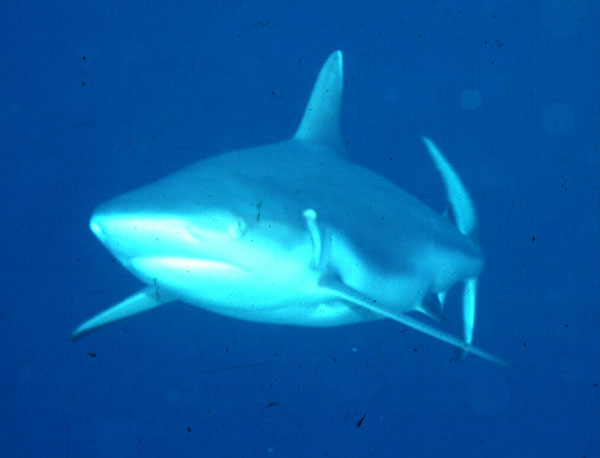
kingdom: Animalia
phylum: Chordata
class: Elasmobranchii
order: Carcharhiniformes
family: Carcharhinidae
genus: Carcharhinus
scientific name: Carcharhinus amblyrhynchos
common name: Grey reef shark
